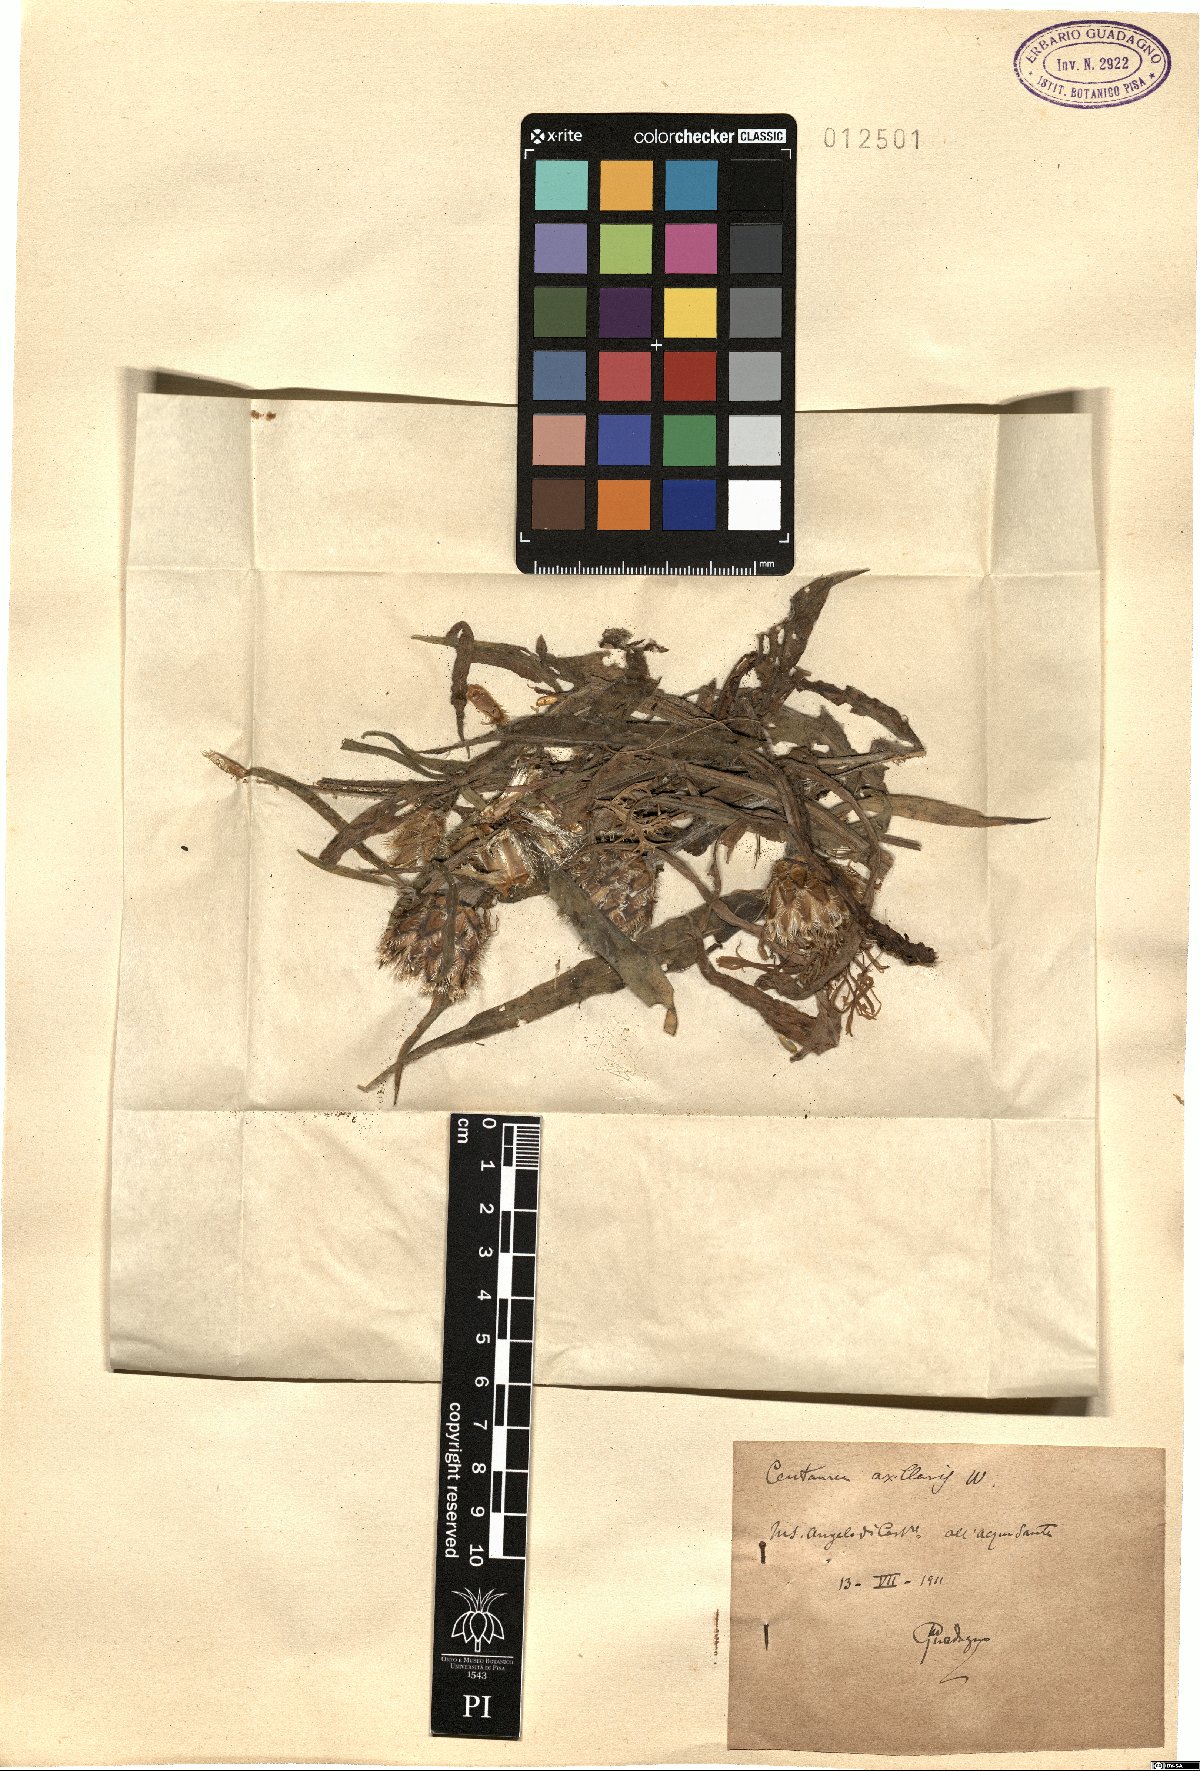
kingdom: Plantae
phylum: Tracheophyta
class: Magnoliopsida
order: Asterales
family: Asteraceae
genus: Centaurea
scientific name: Centaurea triumfettii
